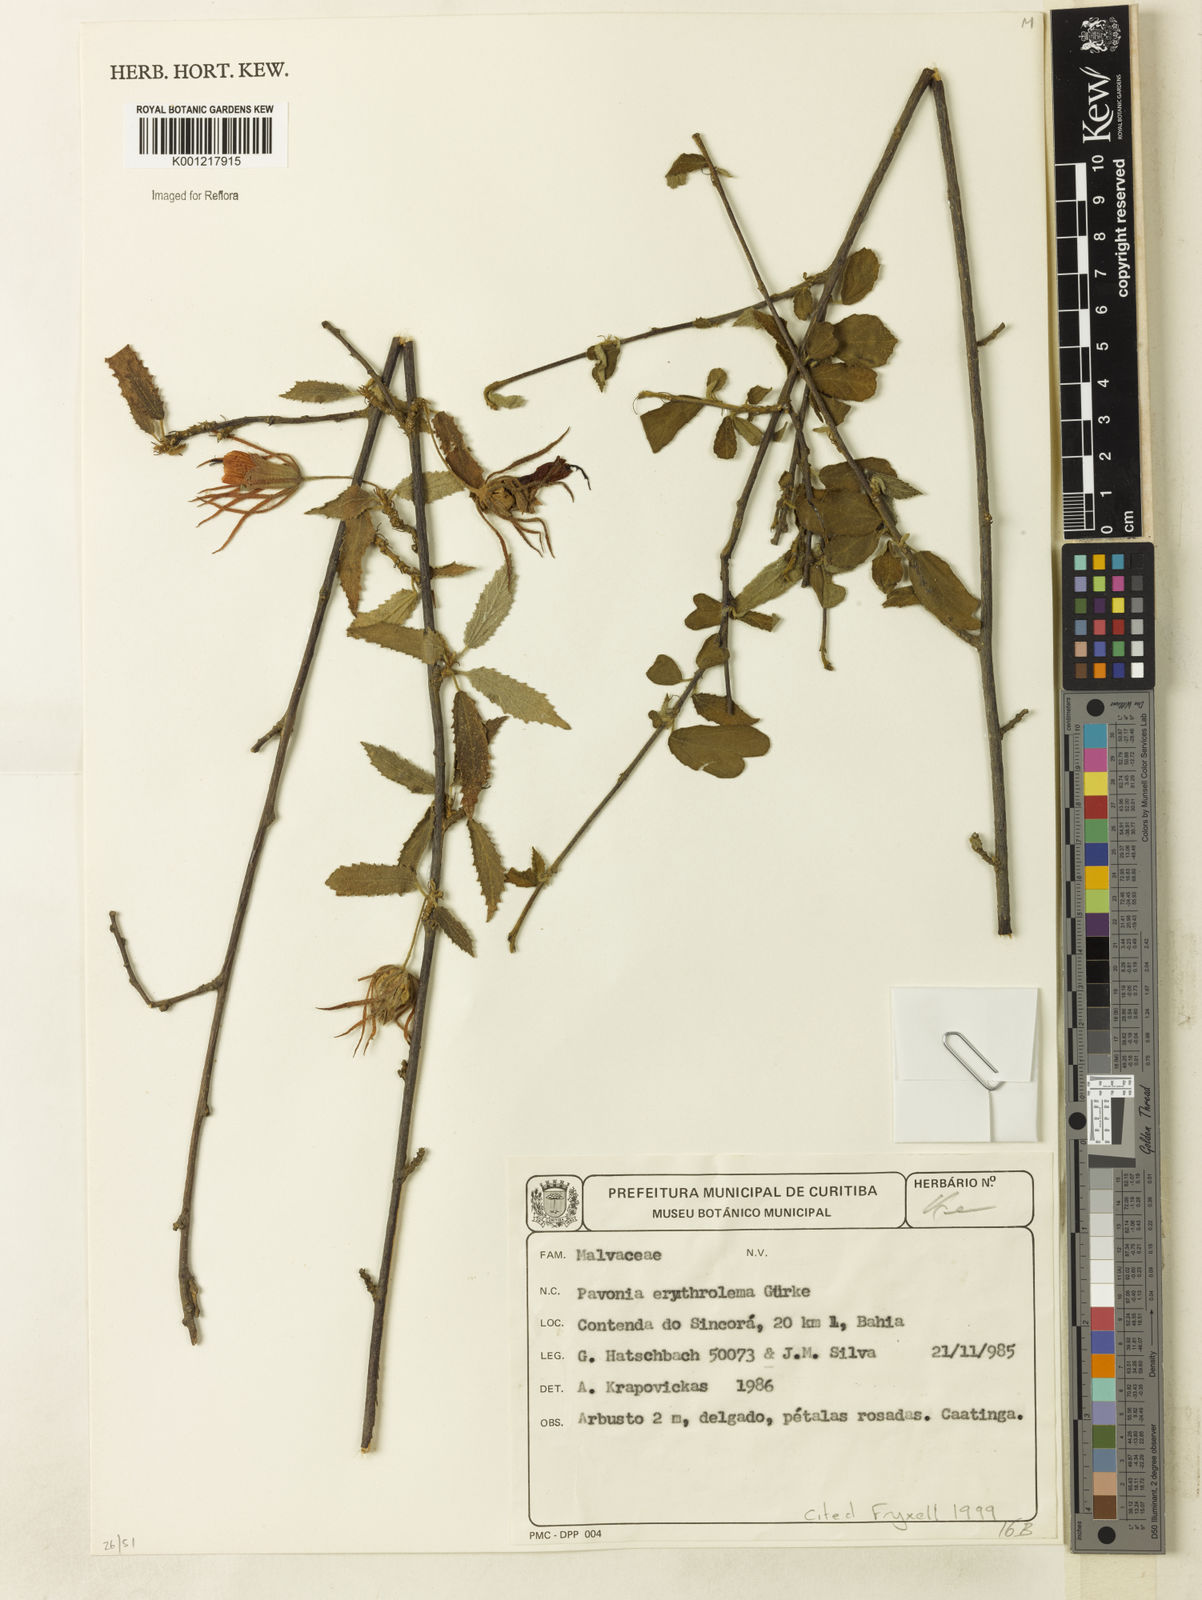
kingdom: Plantae
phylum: Tracheophyta
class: Magnoliopsida
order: Malvales
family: Malvaceae
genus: Pavonia
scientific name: Pavonia
